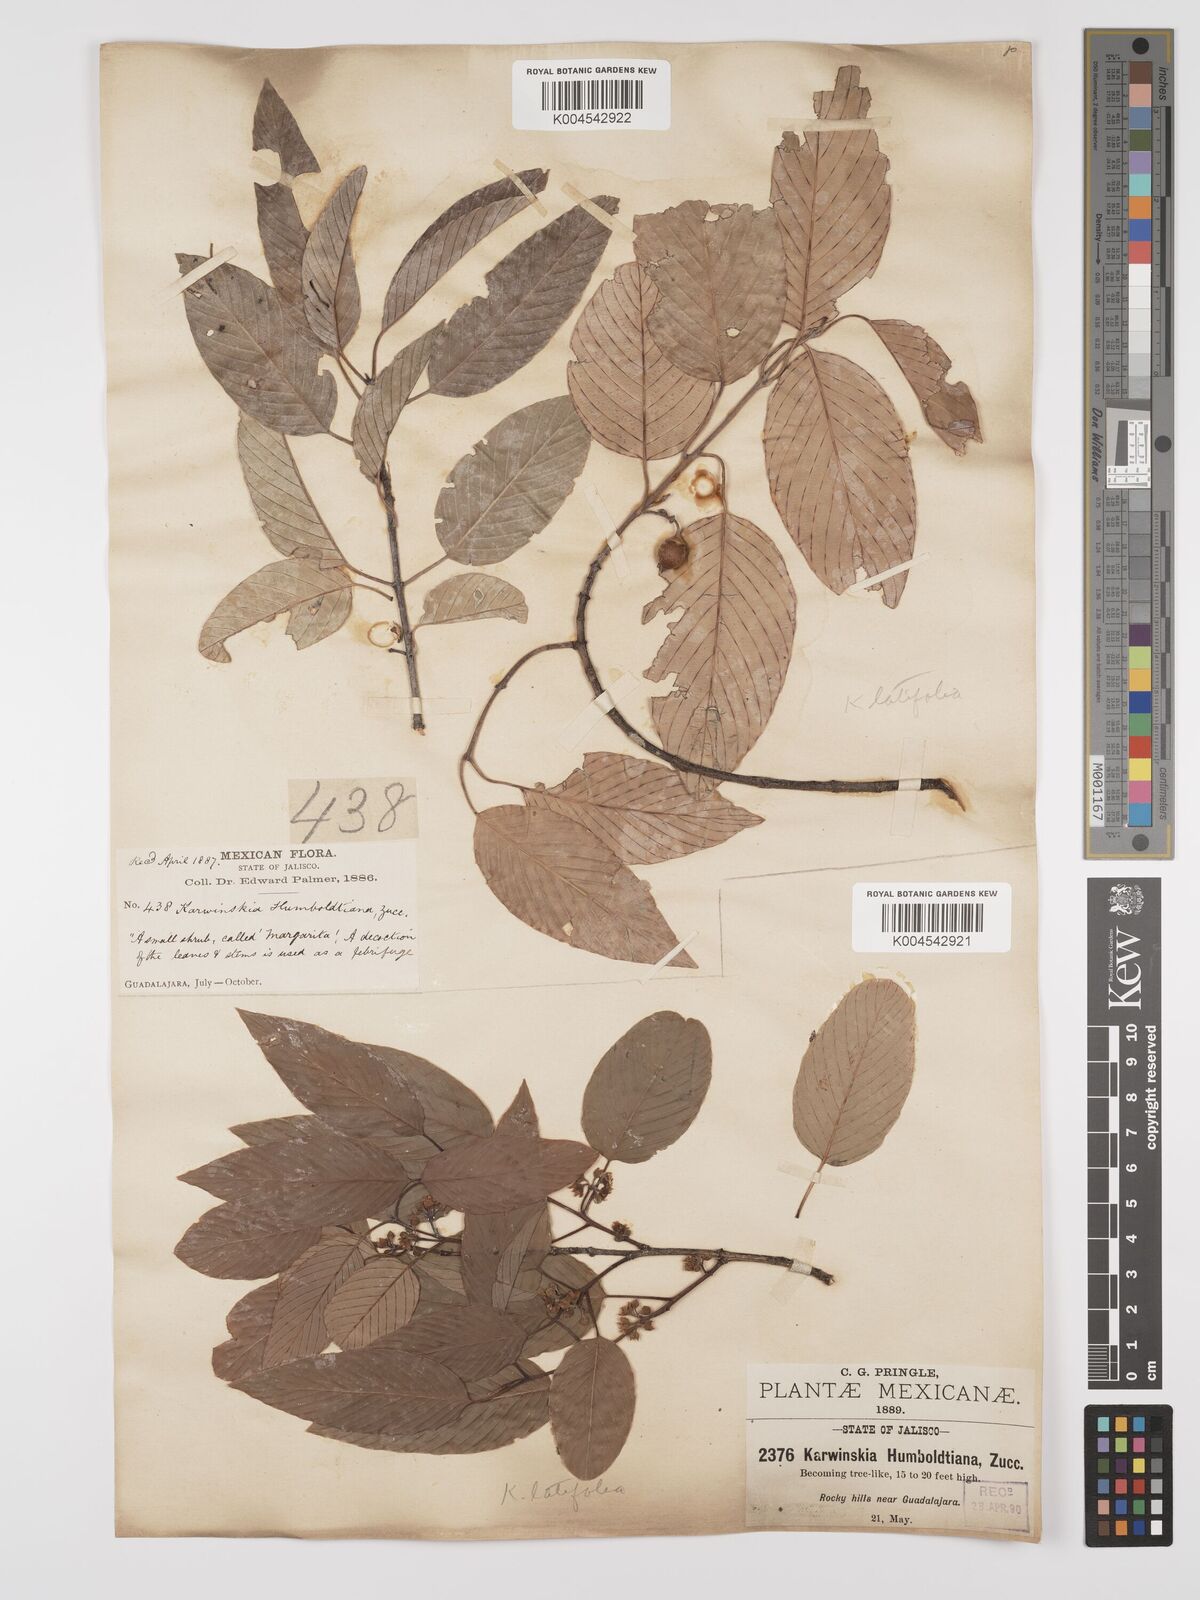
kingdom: Plantae
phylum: Tracheophyta
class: Magnoliopsida
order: Rosales
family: Rhamnaceae
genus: Karwinskia
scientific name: Karwinskia latifolia
